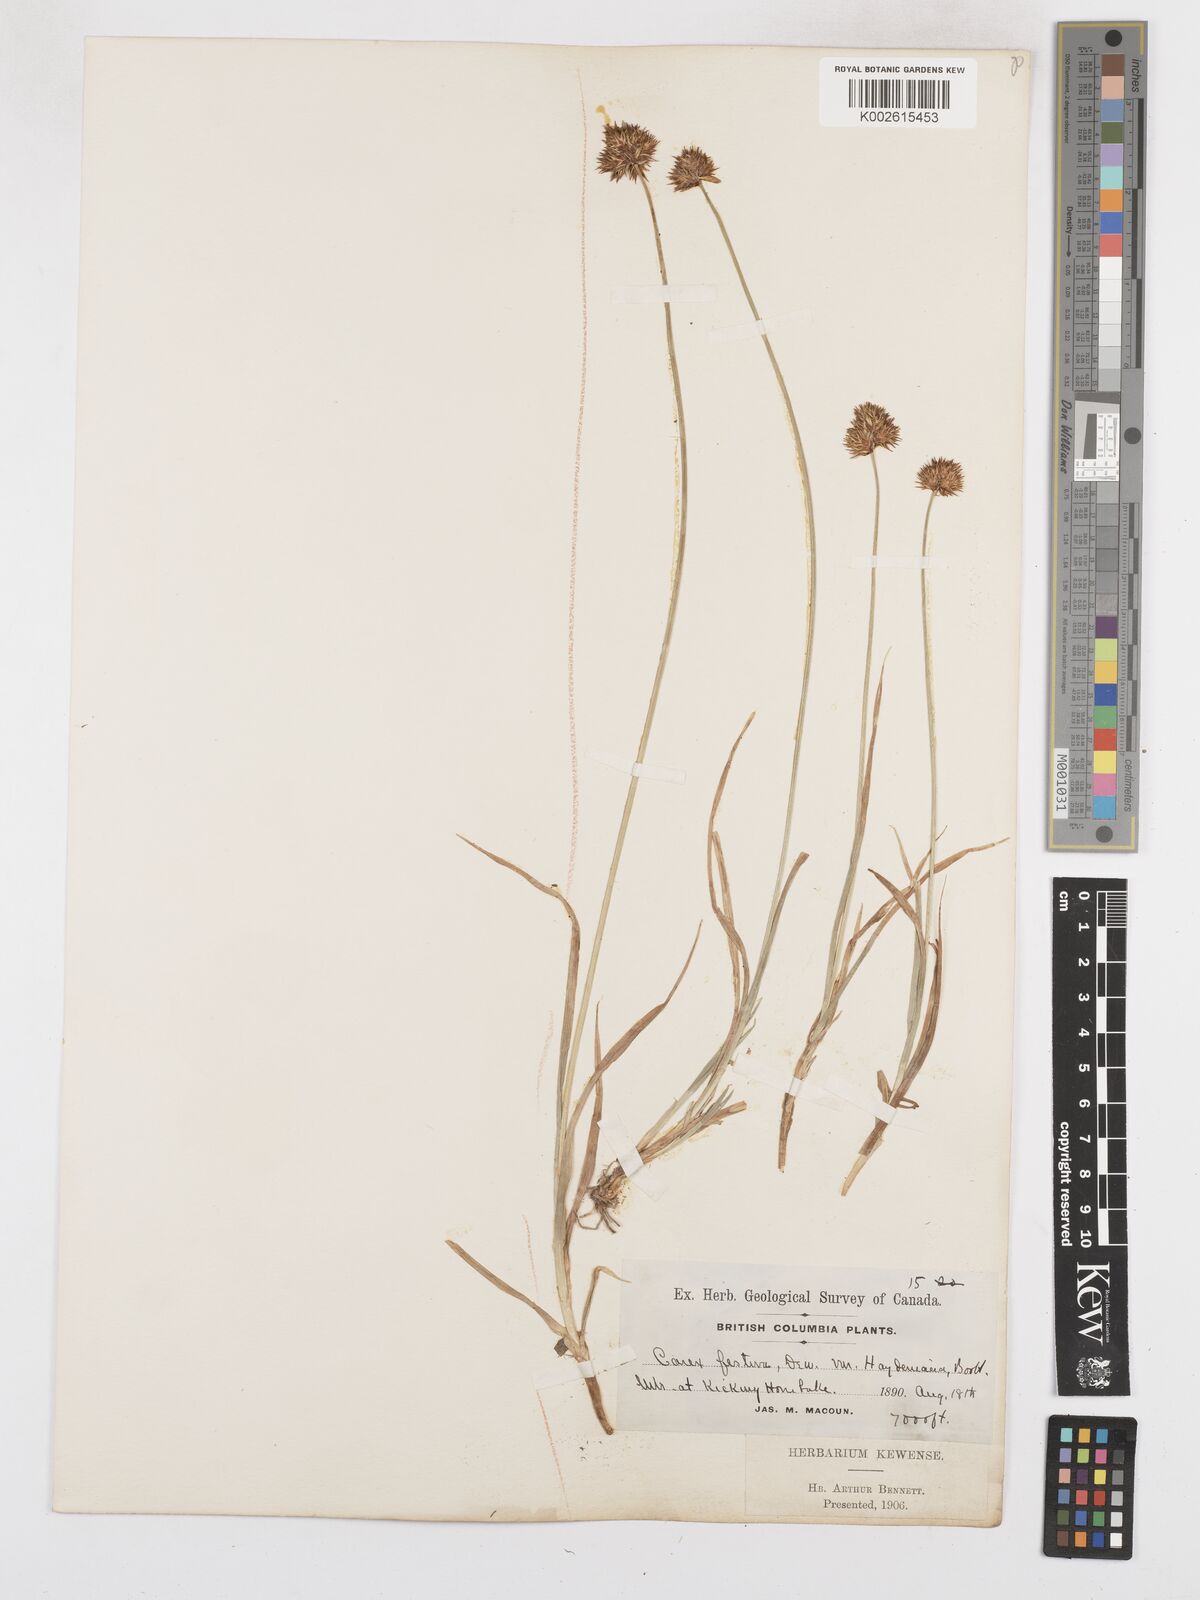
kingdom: Plantae
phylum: Tracheophyta
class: Liliopsida
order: Poales
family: Cyperaceae
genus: Carex
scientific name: Carex haydeniana
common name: Cloud sedge
